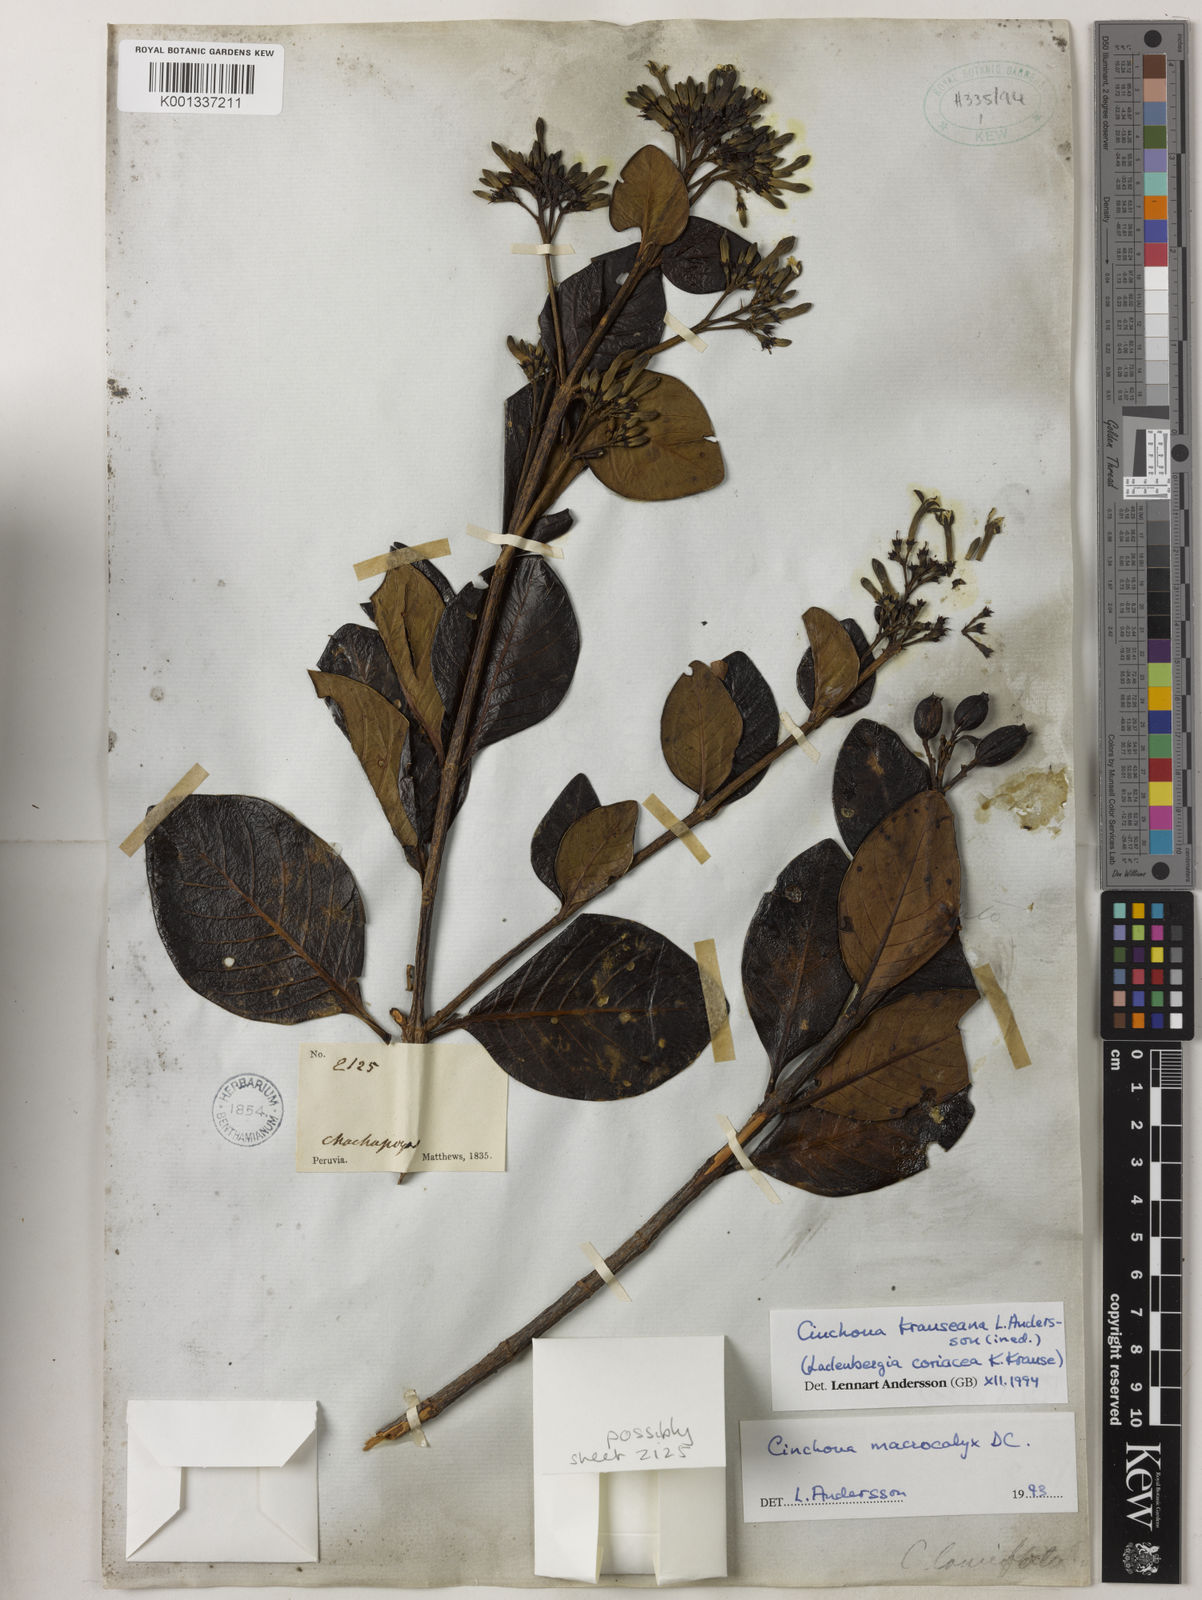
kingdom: Plantae
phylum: Tracheophyta
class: Magnoliopsida
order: Gentianales
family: Rubiaceae
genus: Cinchona
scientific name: Cinchona krauseana
